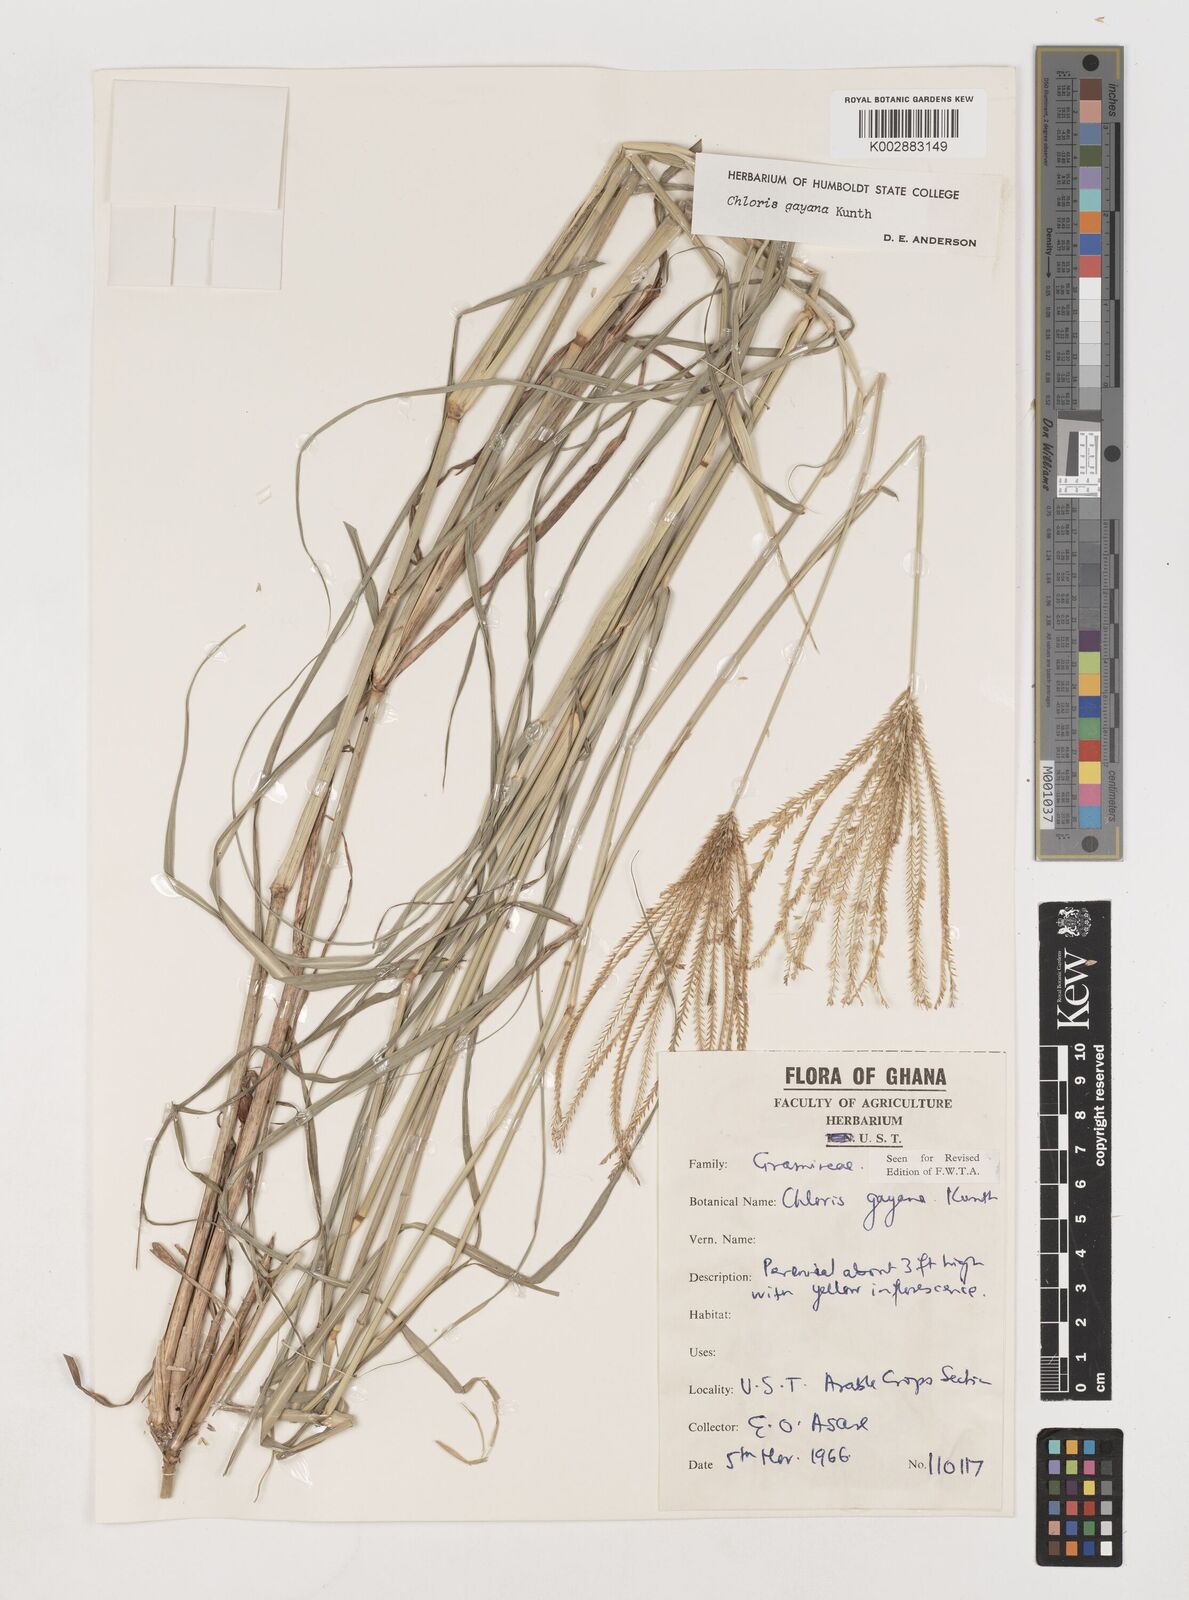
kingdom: Plantae
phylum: Tracheophyta
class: Liliopsida
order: Poales
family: Poaceae
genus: Chloris
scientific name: Chloris gayana
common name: Rhodes grass
